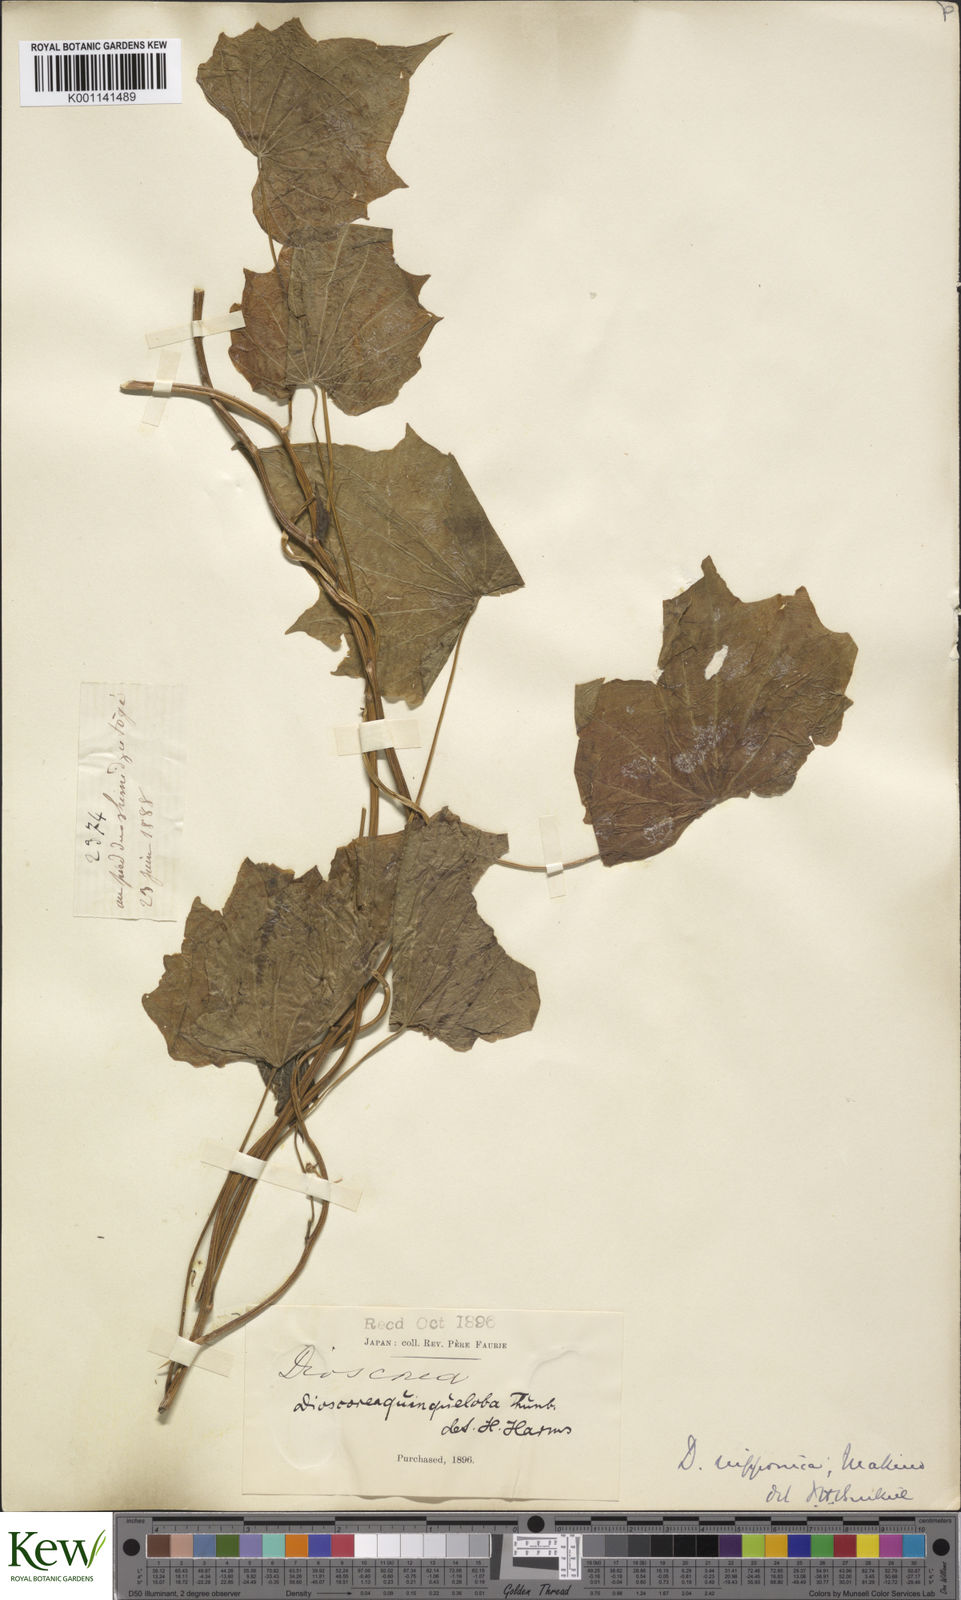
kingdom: Plantae
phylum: Tracheophyta
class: Liliopsida
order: Dioscoreales
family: Dioscoreaceae
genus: Dioscorea
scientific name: Dioscorea nipponica
